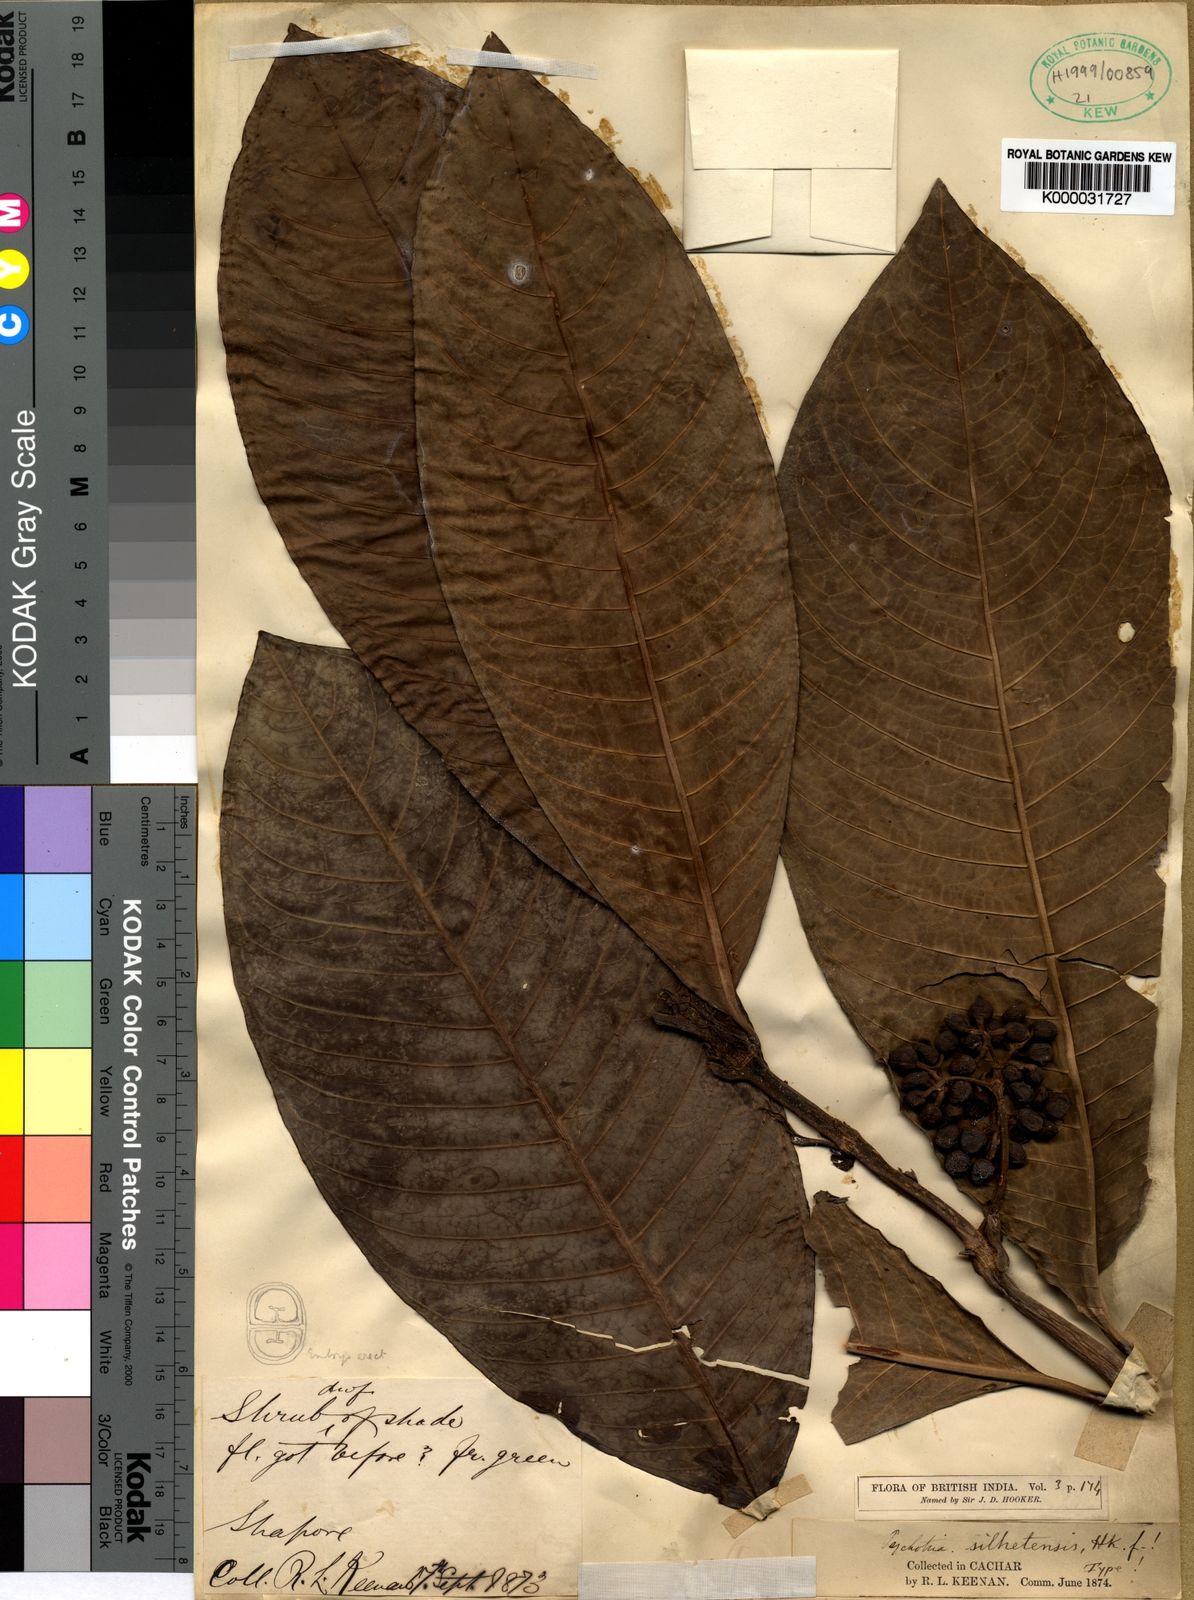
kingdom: Plantae
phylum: Tracheophyta
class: Magnoliopsida
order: Gentianales
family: Rubiaceae
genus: Psychotria
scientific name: Psychotria silhetensis
